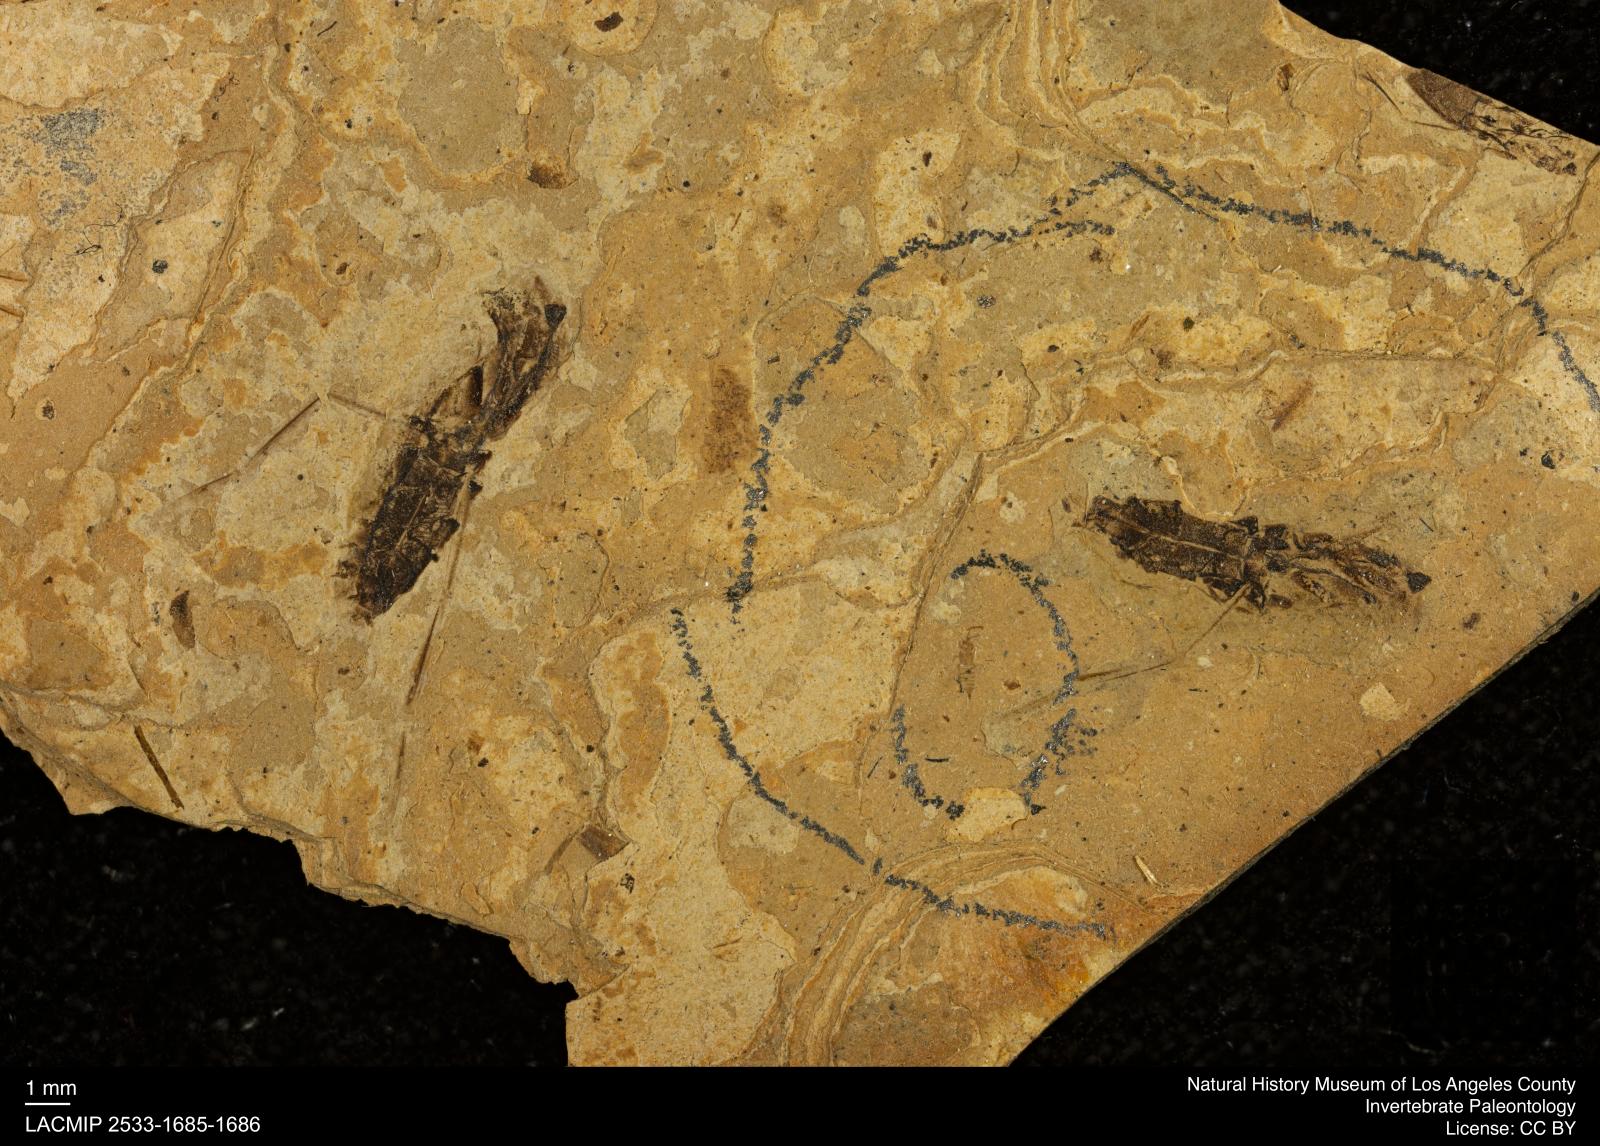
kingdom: Animalia
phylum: Arthropoda
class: Insecta
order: Hemiptera
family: Notonectidae
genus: Notonecta
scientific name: Notonecta
